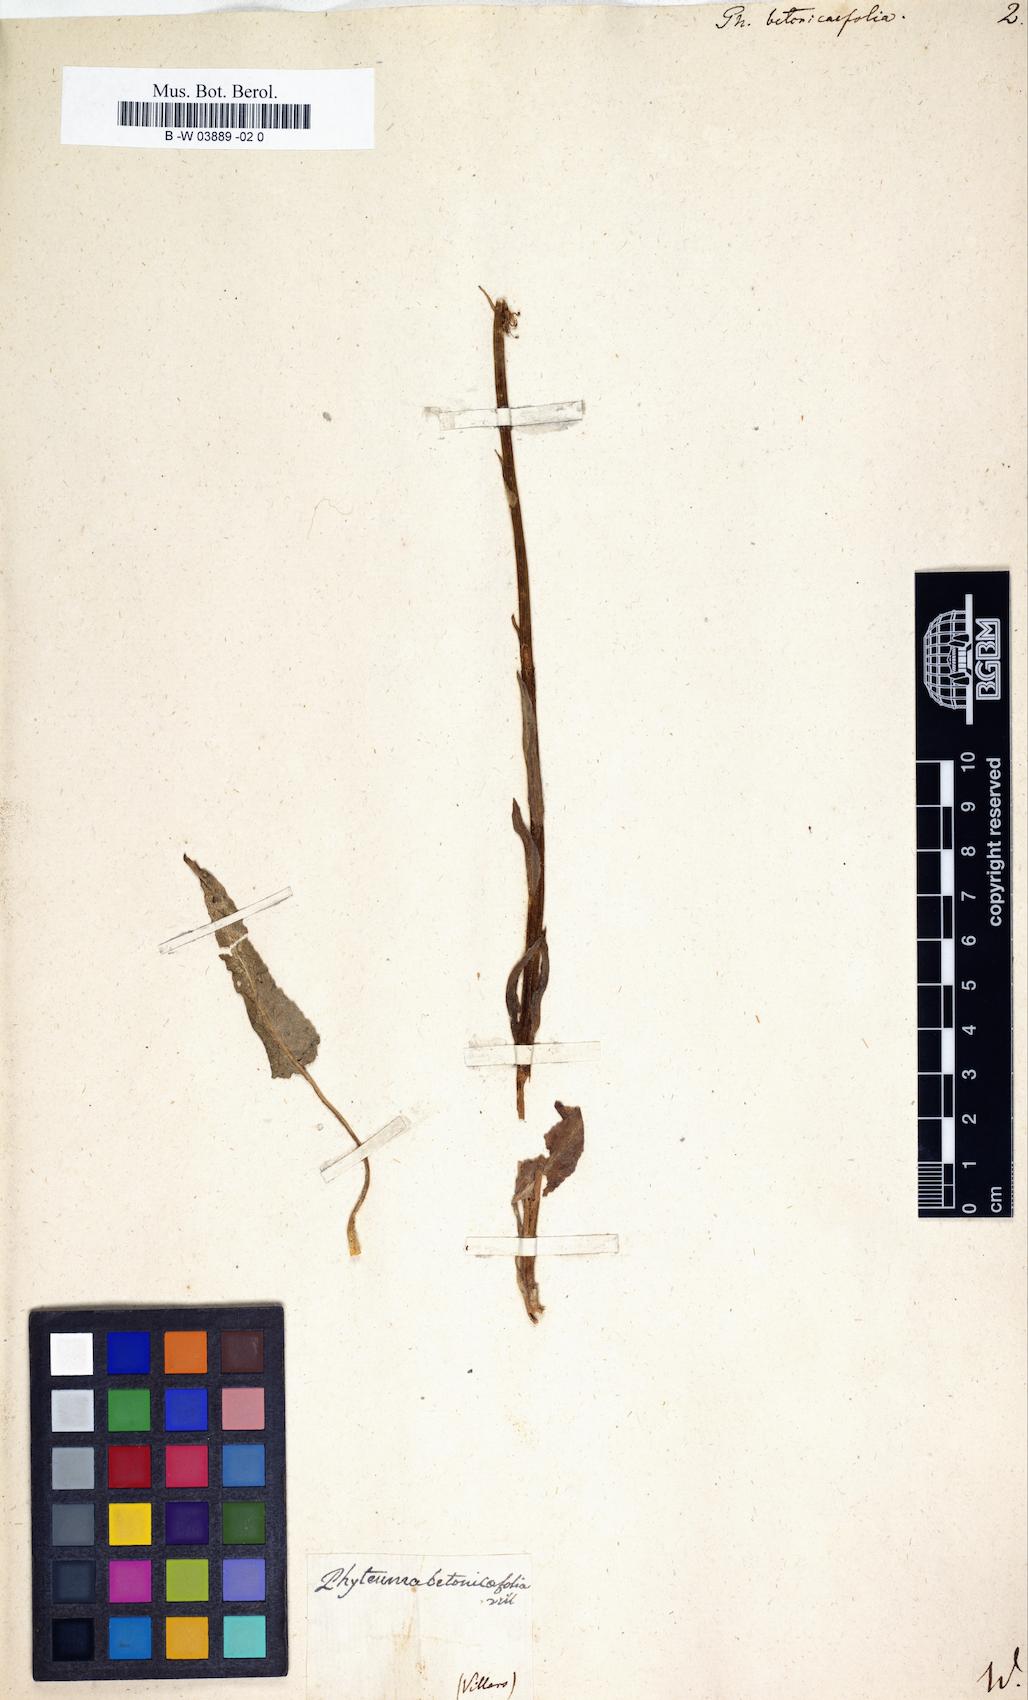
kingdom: Plantae
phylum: Tracheophyta
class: Magnoliopsida
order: Asterales
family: Campanulaceae
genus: Phyteuma
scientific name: Phyteuma betonicifolium
